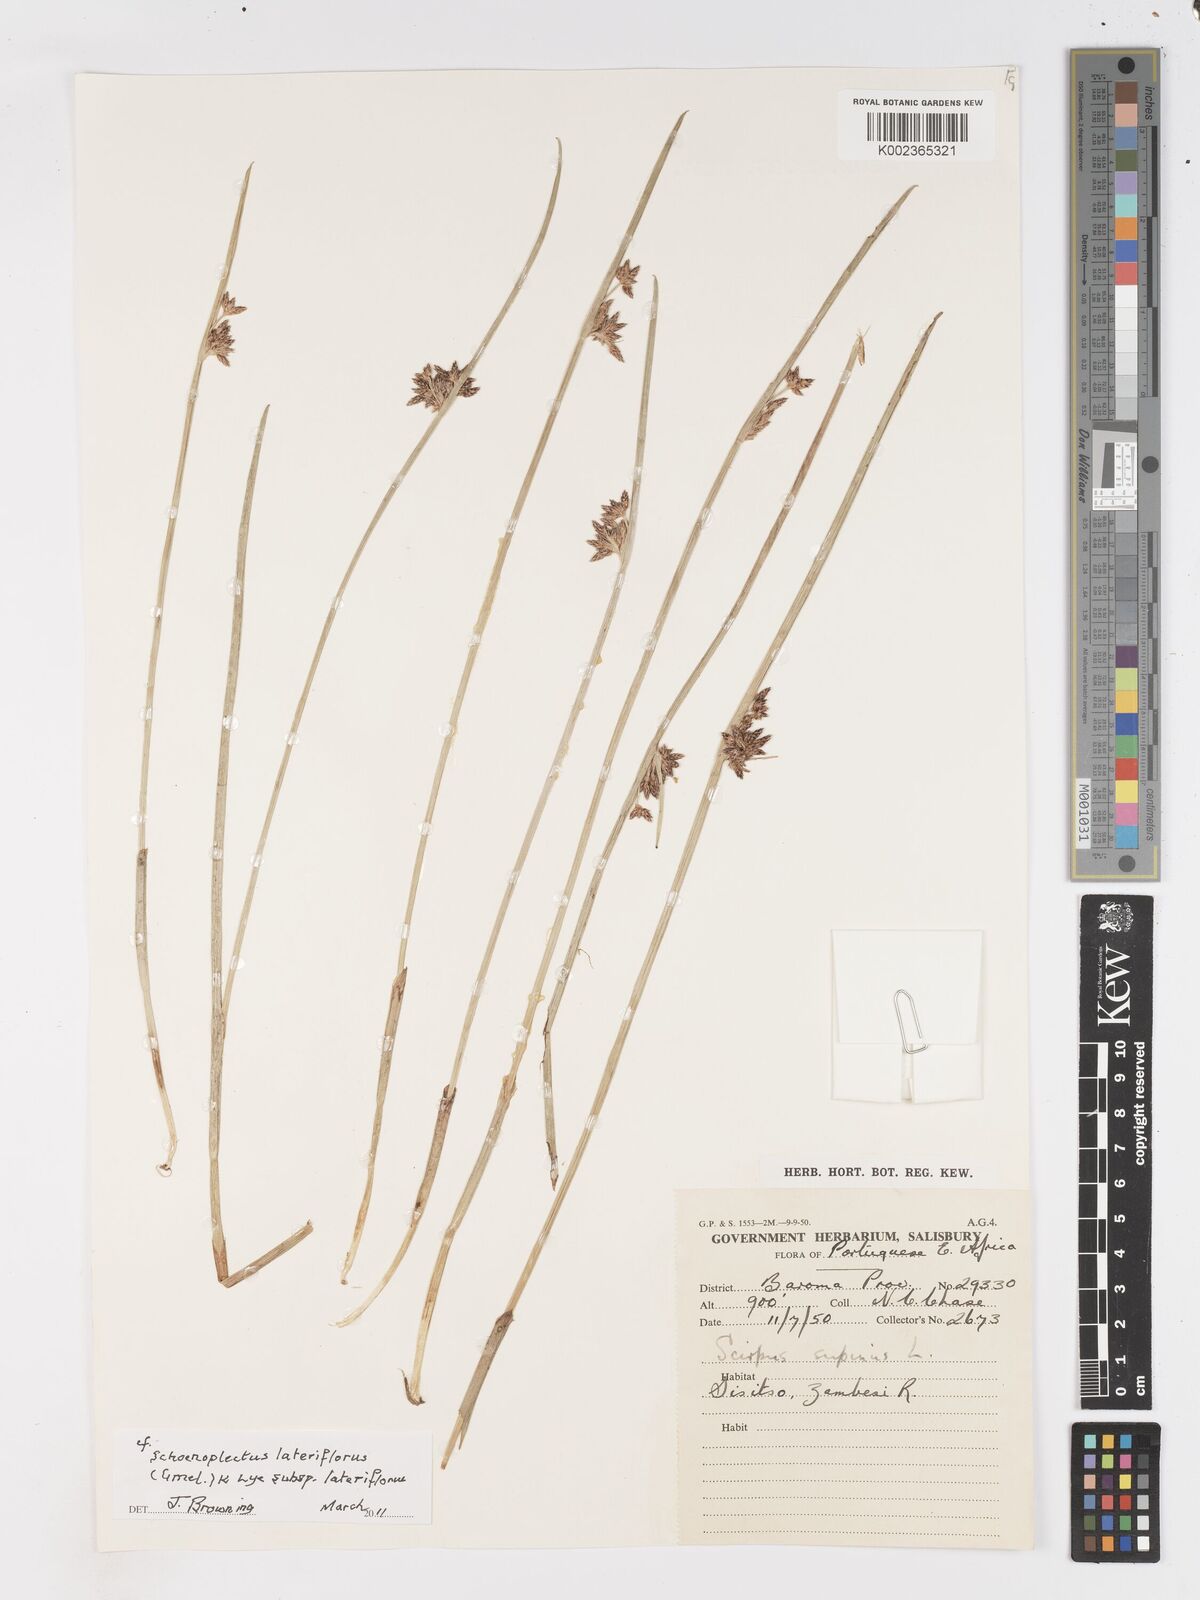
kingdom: Plantae
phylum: Tracheophyta
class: Liliopsida
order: Poales
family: Cyperaceae
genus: Schoenoplectus
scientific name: Schoenoplectus
